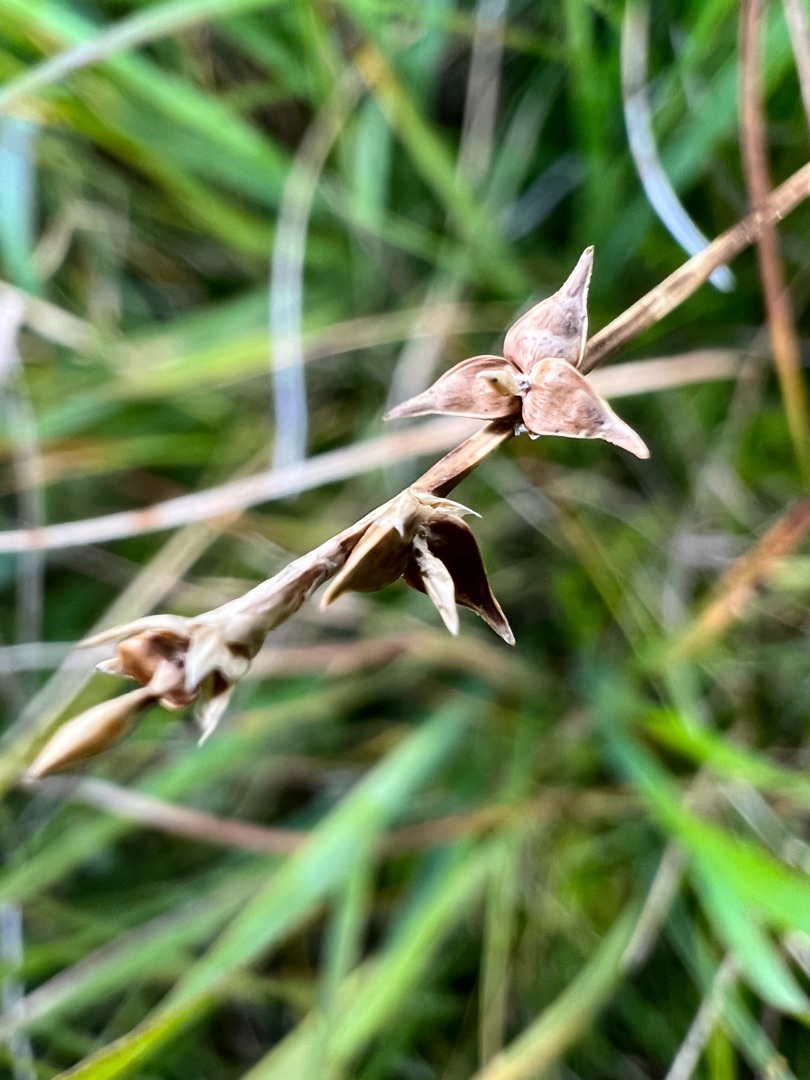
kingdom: Plantae
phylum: Tracheophyta
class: Liliopsida
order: Poales
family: Cyperaceae
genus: Carex
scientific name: Carex echinata
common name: Stjerne-star
